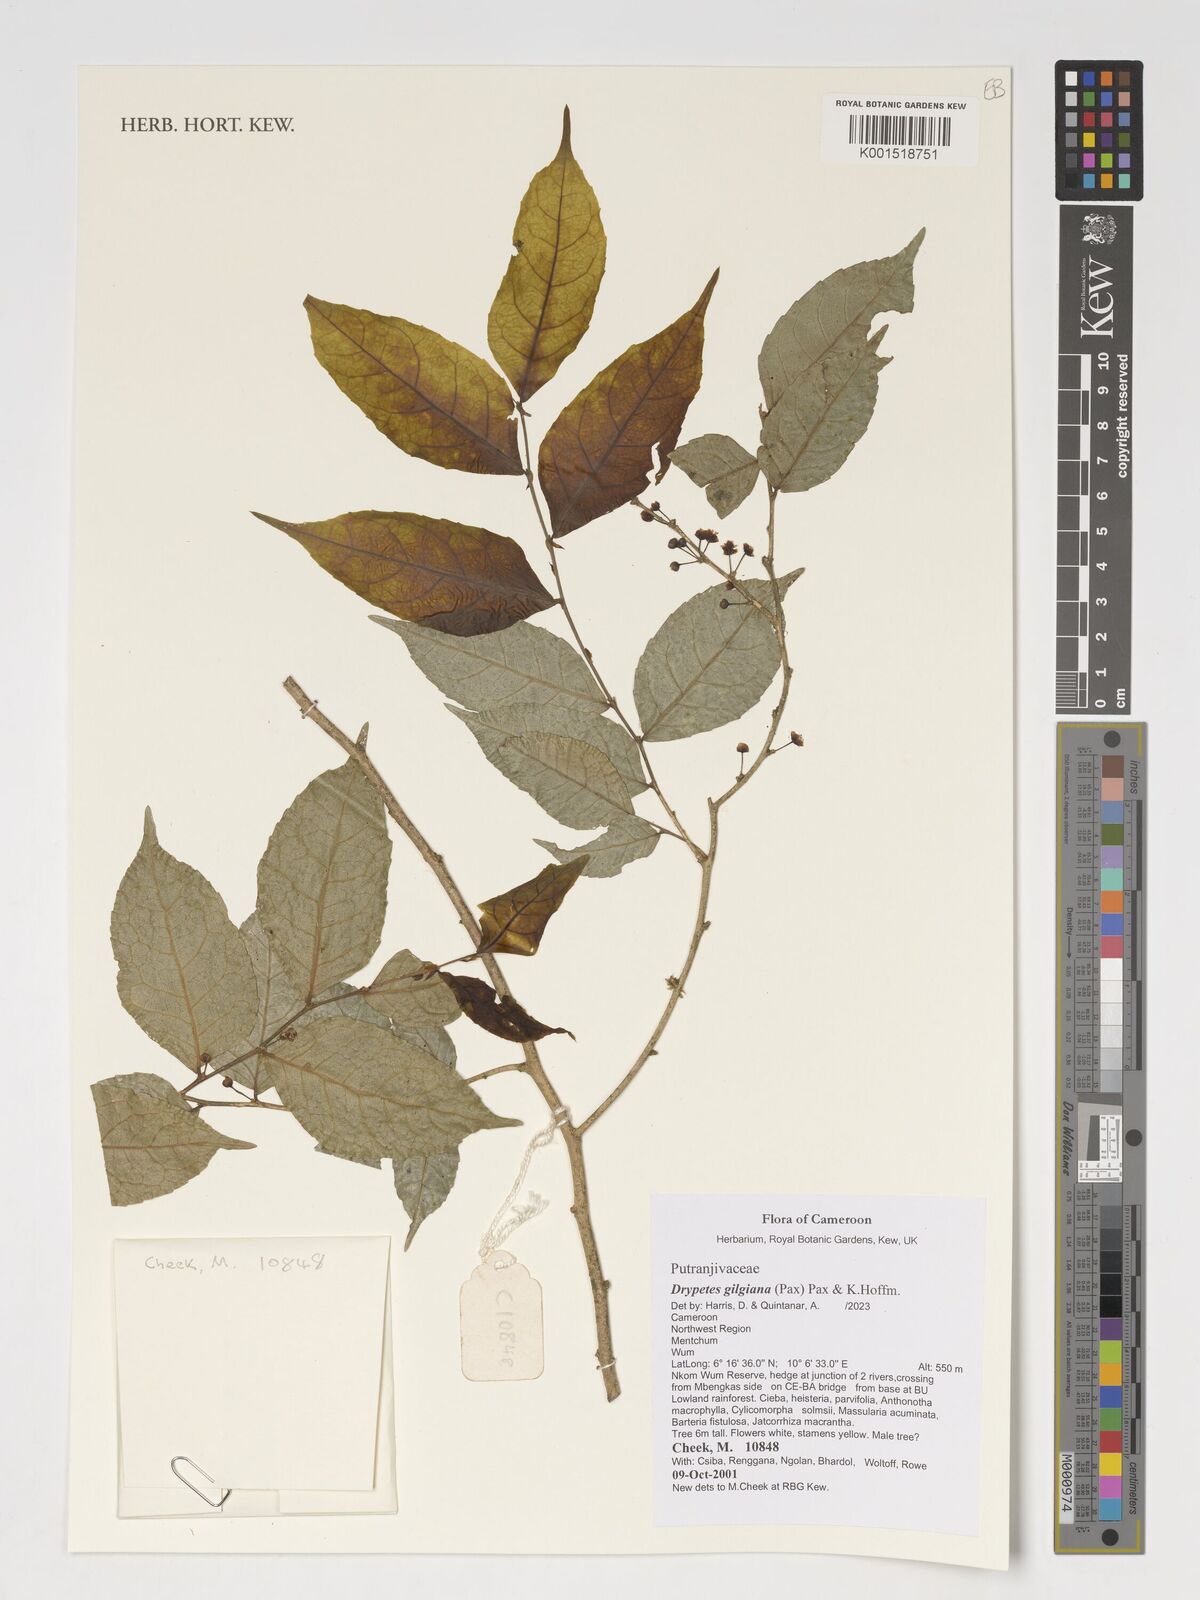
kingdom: Plantae
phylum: Tracheophyta
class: Magnoliopsida
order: Malpighiales
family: Putranjivaceae
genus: Drypetes
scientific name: Drypetes gilgiana
